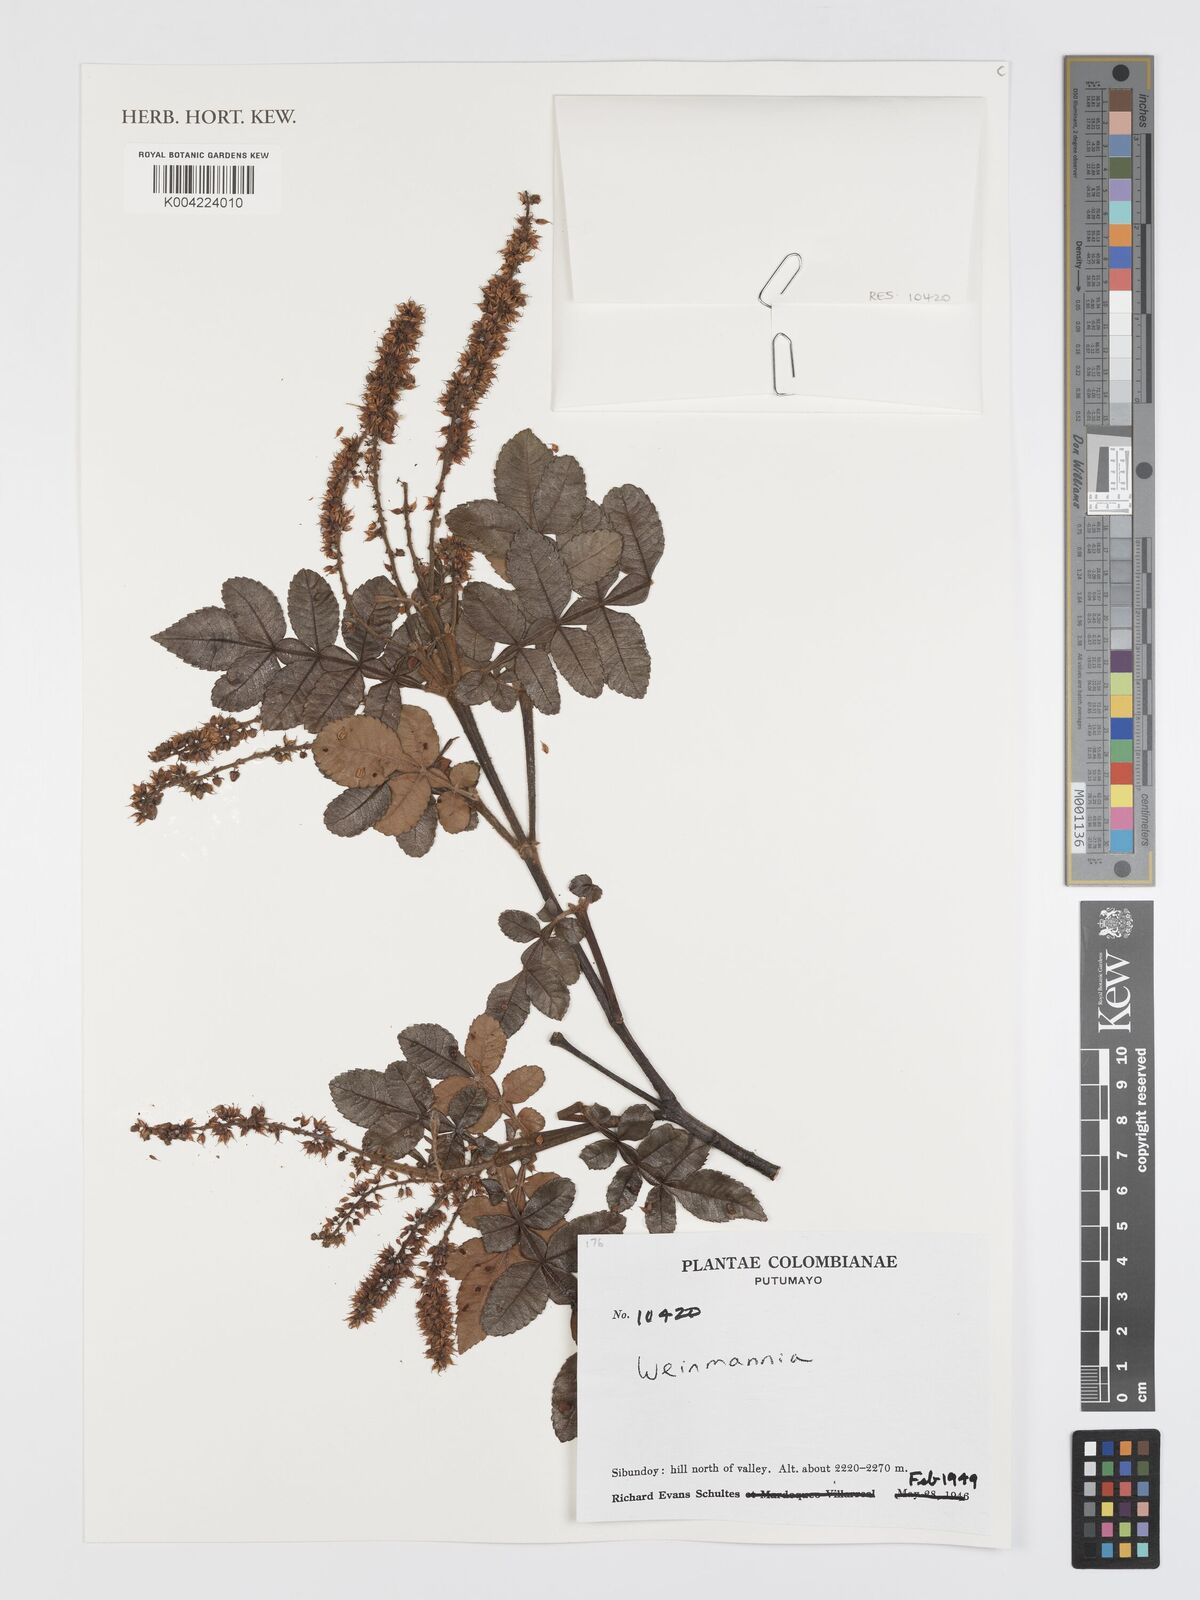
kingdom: Plantae
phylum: Tracheophyta
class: Magnoliopsida
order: Oxalidales
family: Cunoniaceae
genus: Weinmannia
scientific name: Weinmannia
